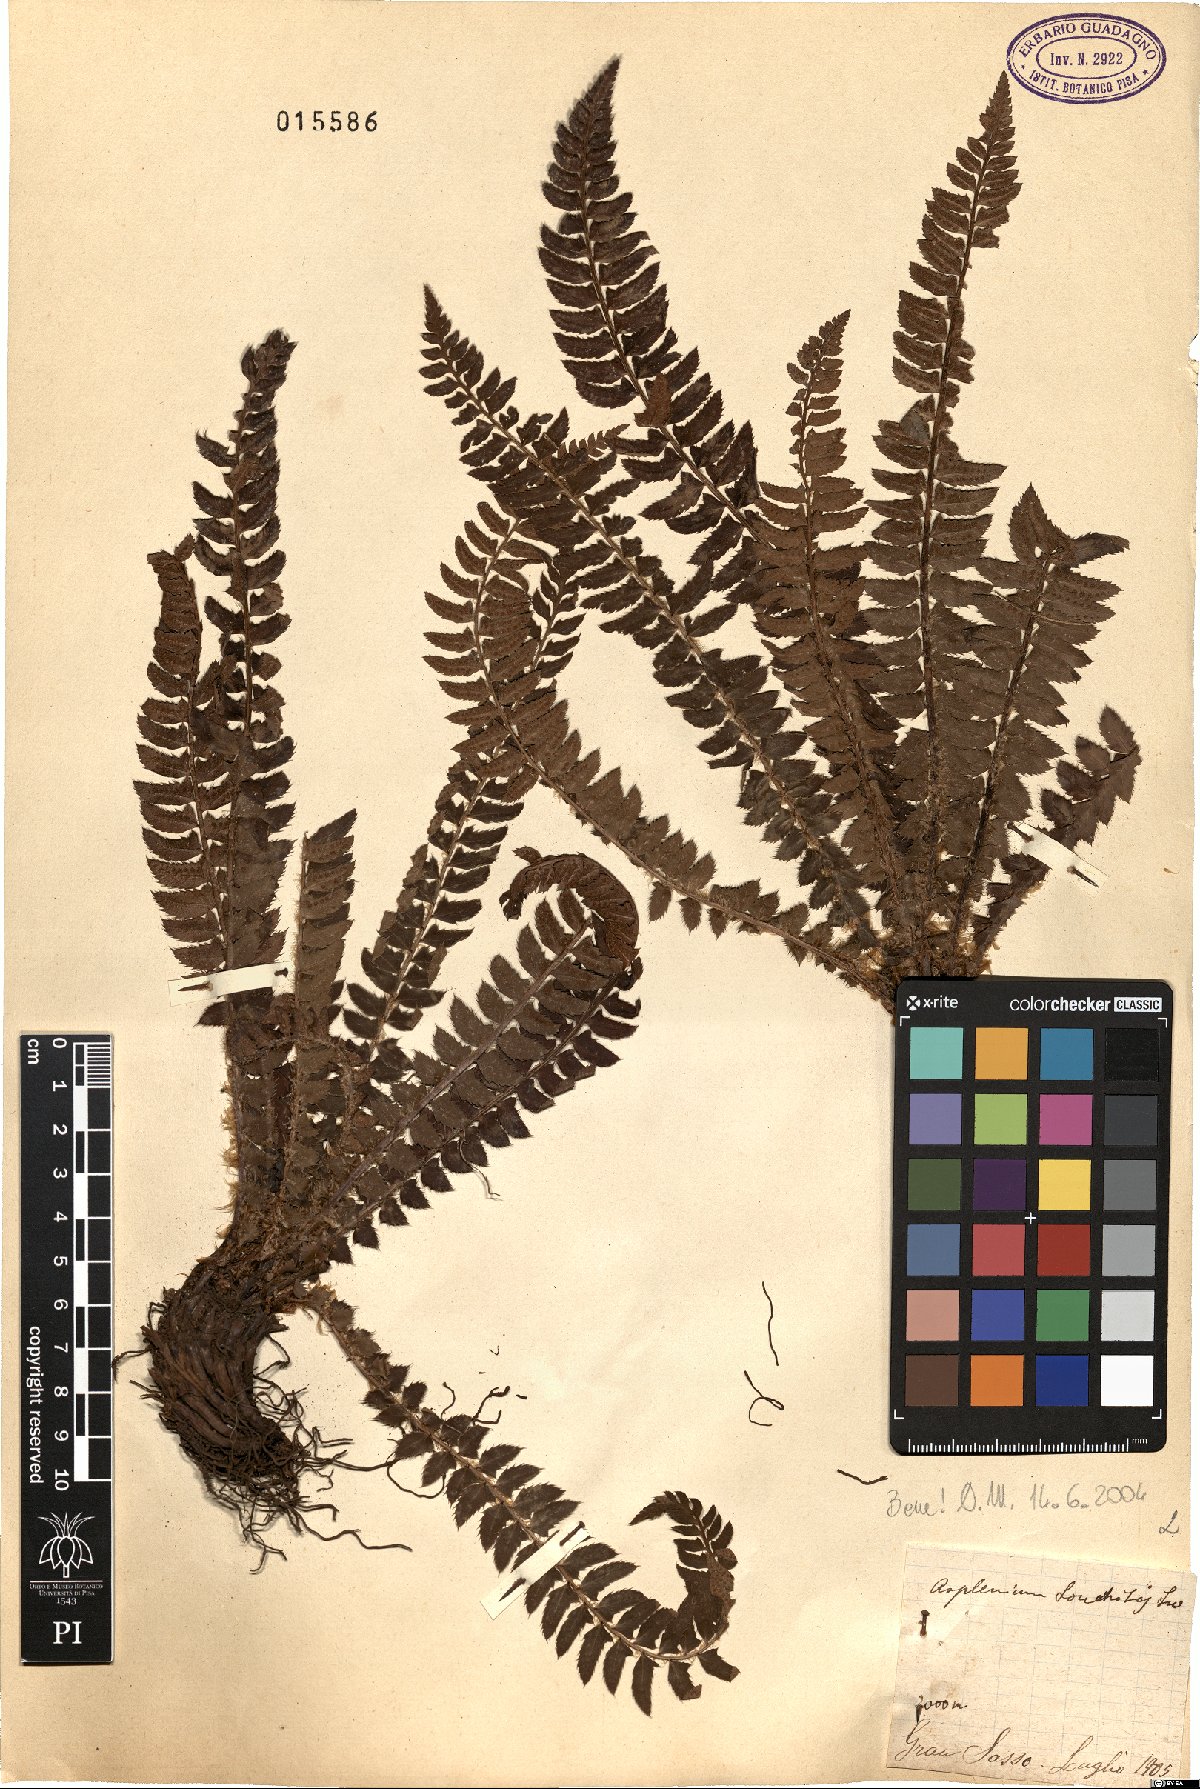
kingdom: Plantae
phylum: Tracheophyta
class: Polypodiopsida
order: Polypodiales
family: Dryopteridaceae
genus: Polystichum
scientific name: Polystichum lonchitis
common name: Holly fern
